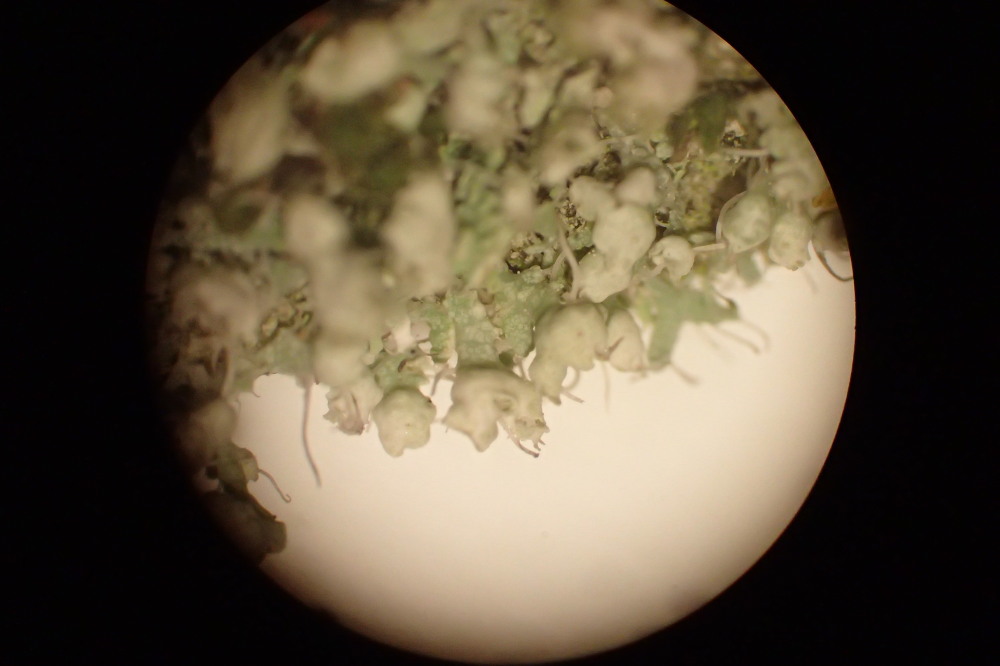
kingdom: Fungi
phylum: Ascomycota
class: Lecanoromycetes
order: Caliciales
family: Physciaceae
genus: Physcia
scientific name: Physcia adscendens
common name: hætte-rosetlav
